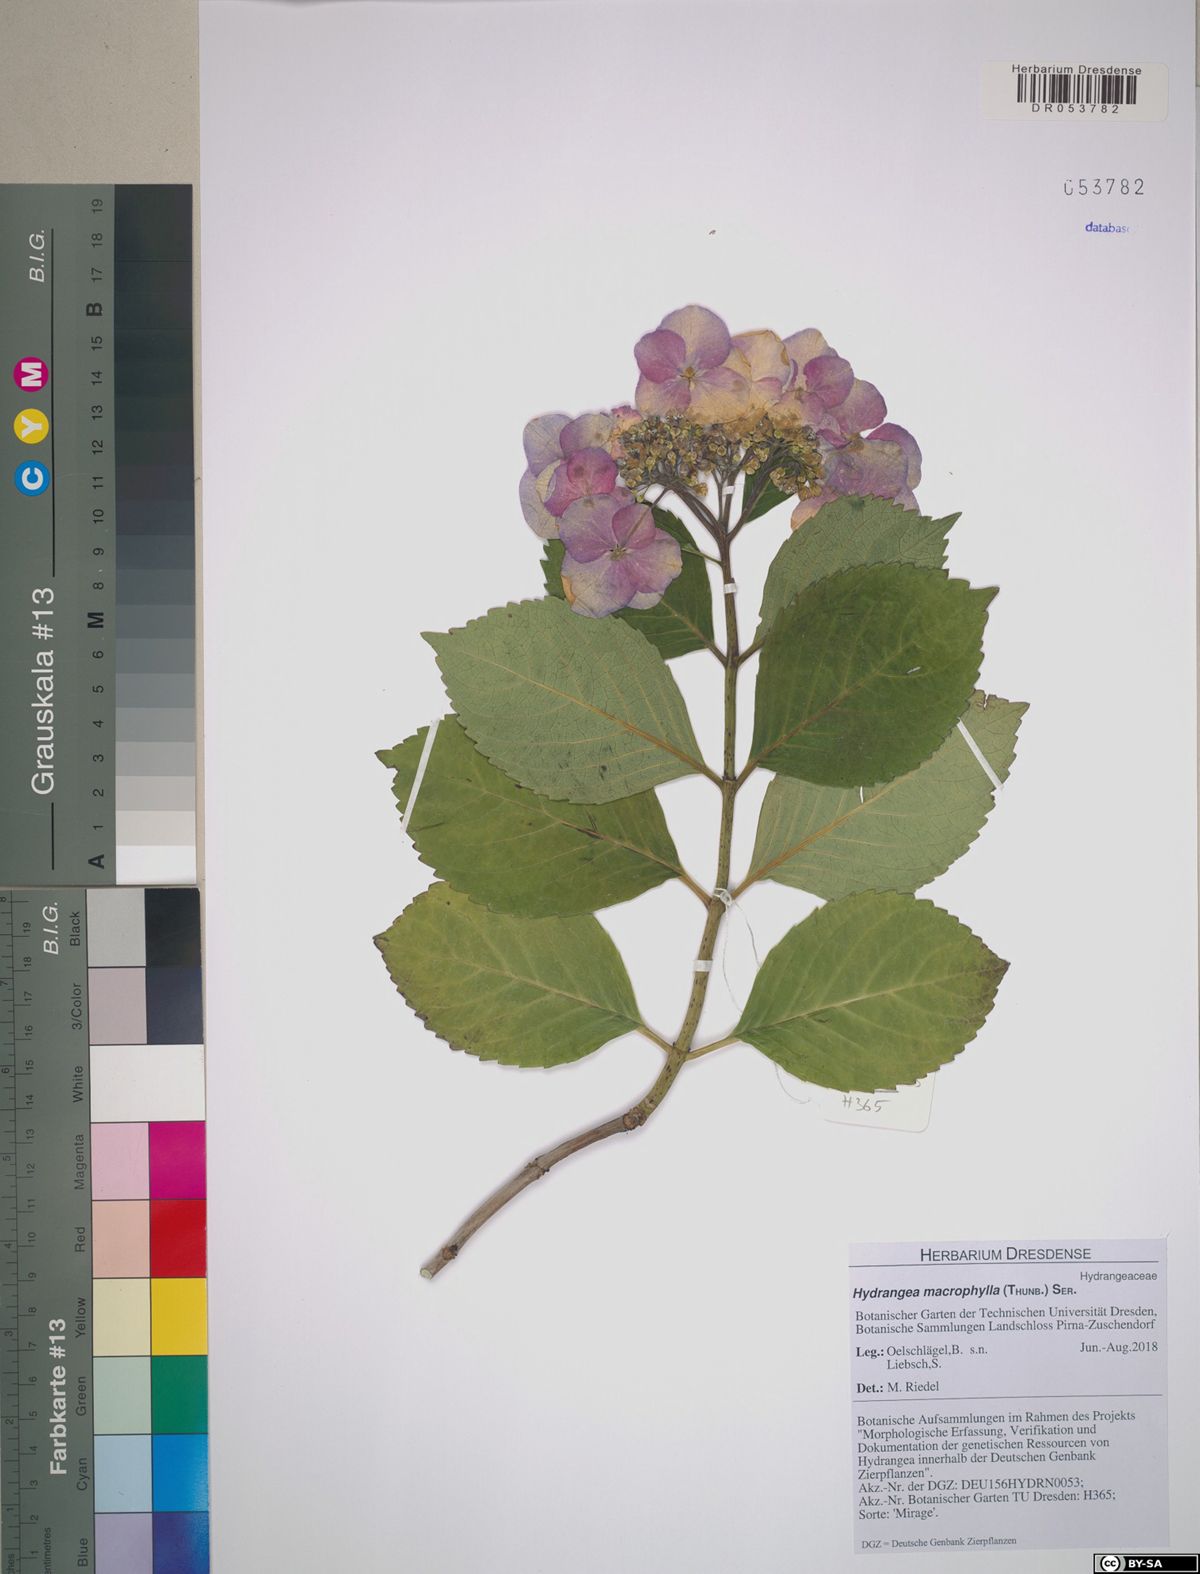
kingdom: Plantae
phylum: Tracheophyta
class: Magnoliopsida
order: Cornales
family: Hydrangeaceae
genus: Hydrangea
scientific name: Hydrangea macrophylla
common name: Hydrangea
